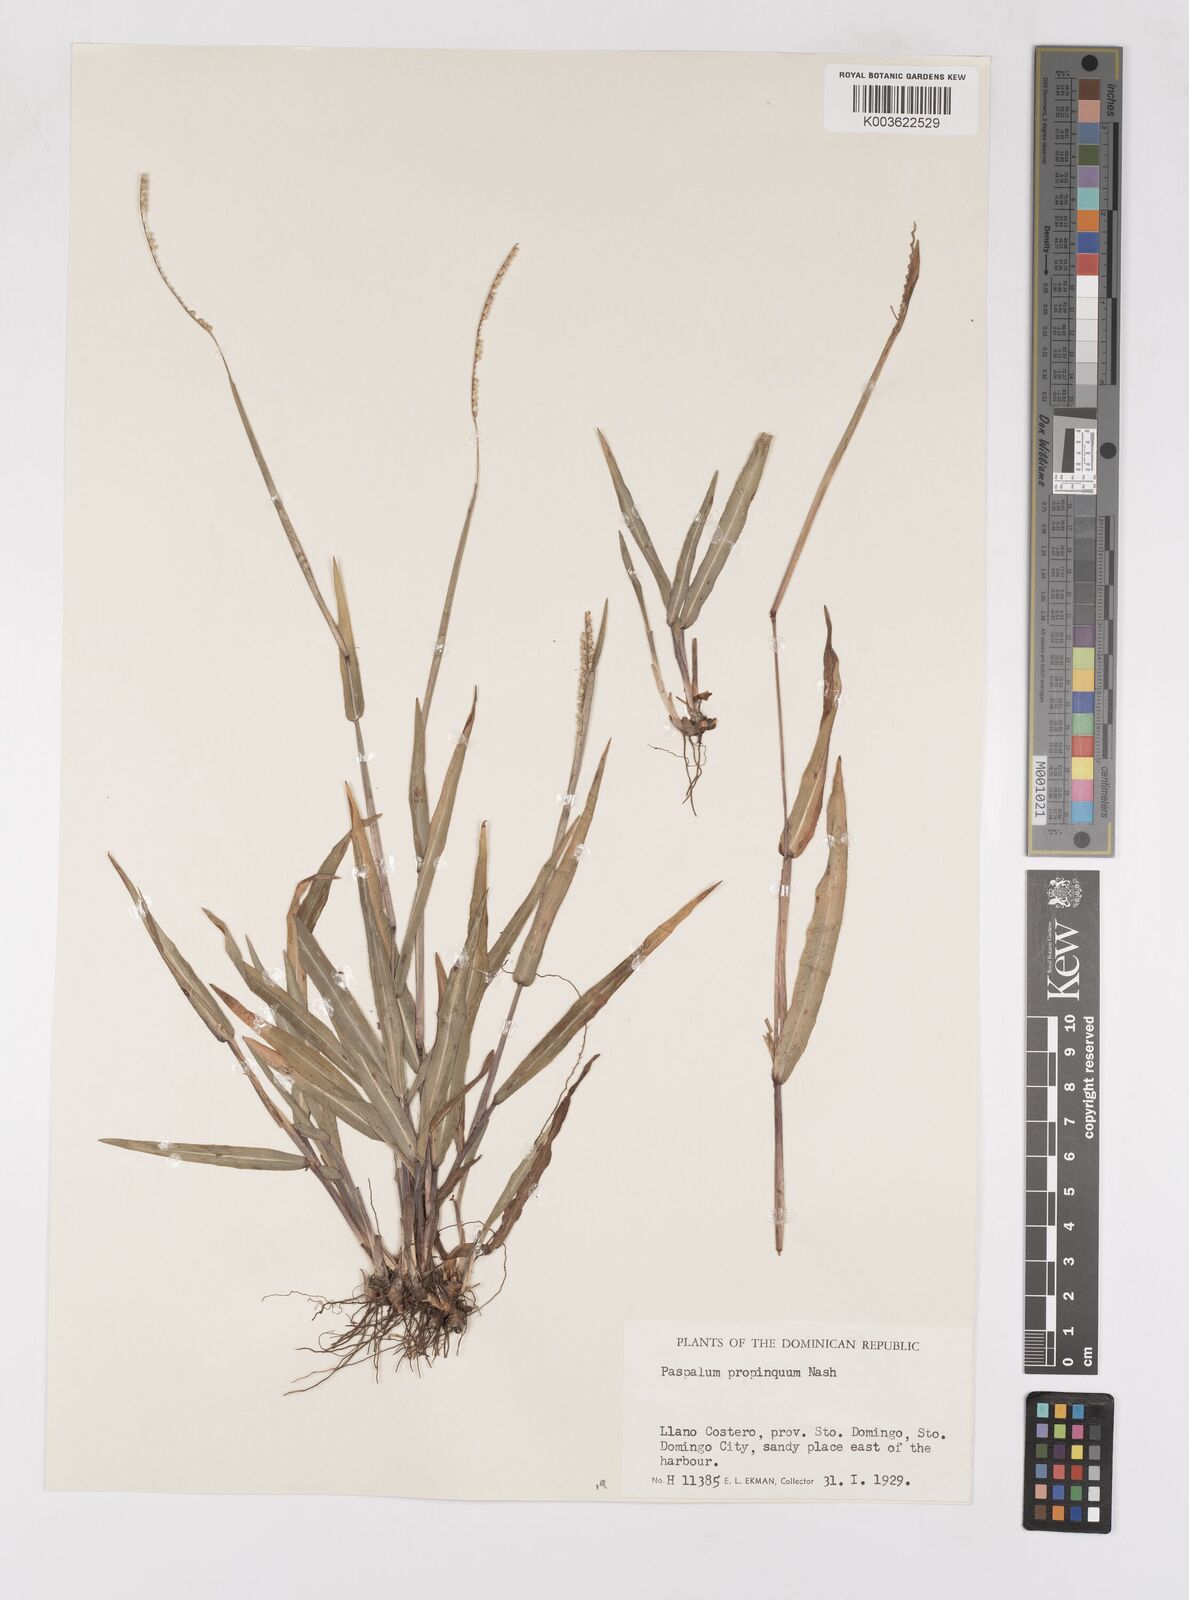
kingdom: Plantae
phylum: Tracheophyta
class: Liliopsida
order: Poales
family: Poaceae
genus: Paspalum
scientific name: Paspalum
